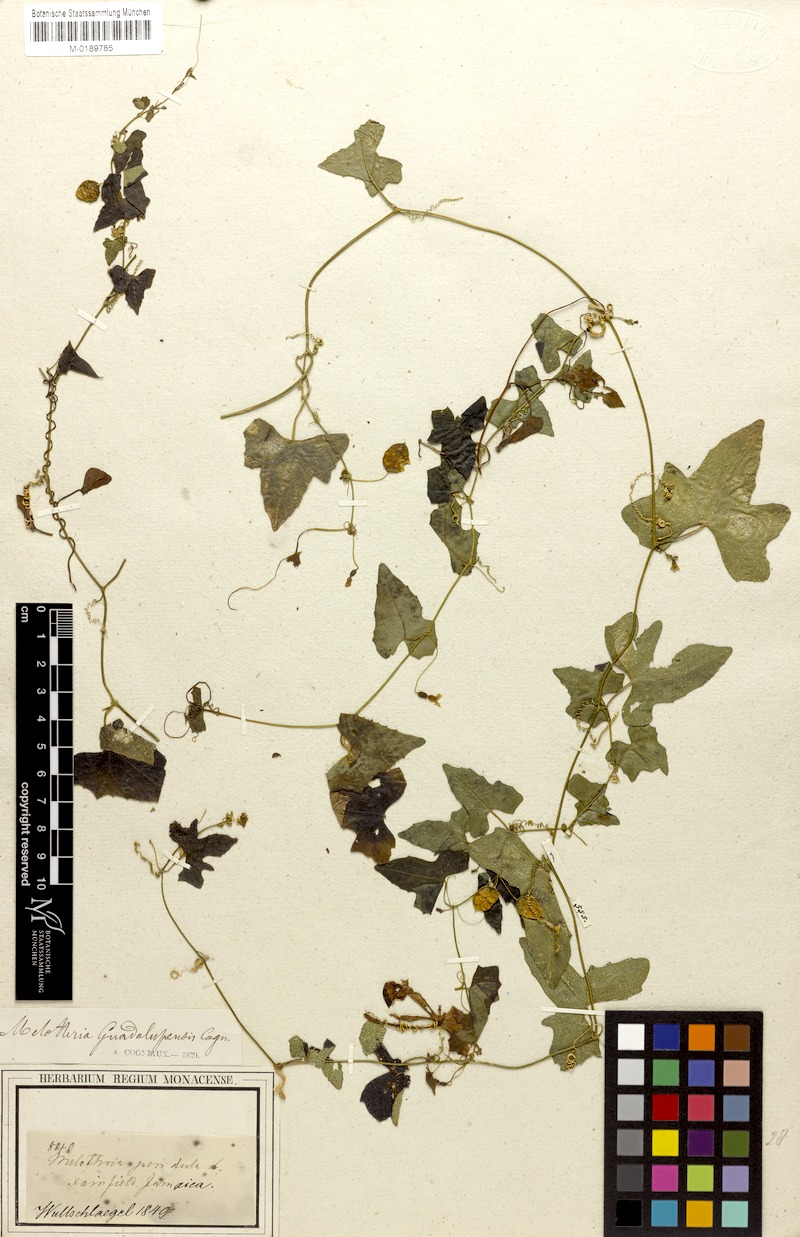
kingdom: Plantae
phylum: Tracheophyta
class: Magnoliopsida
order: Cucurbitales
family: Cucurbitaceae
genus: Melothria
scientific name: Melothria pendula
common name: Creeping-cucumber
